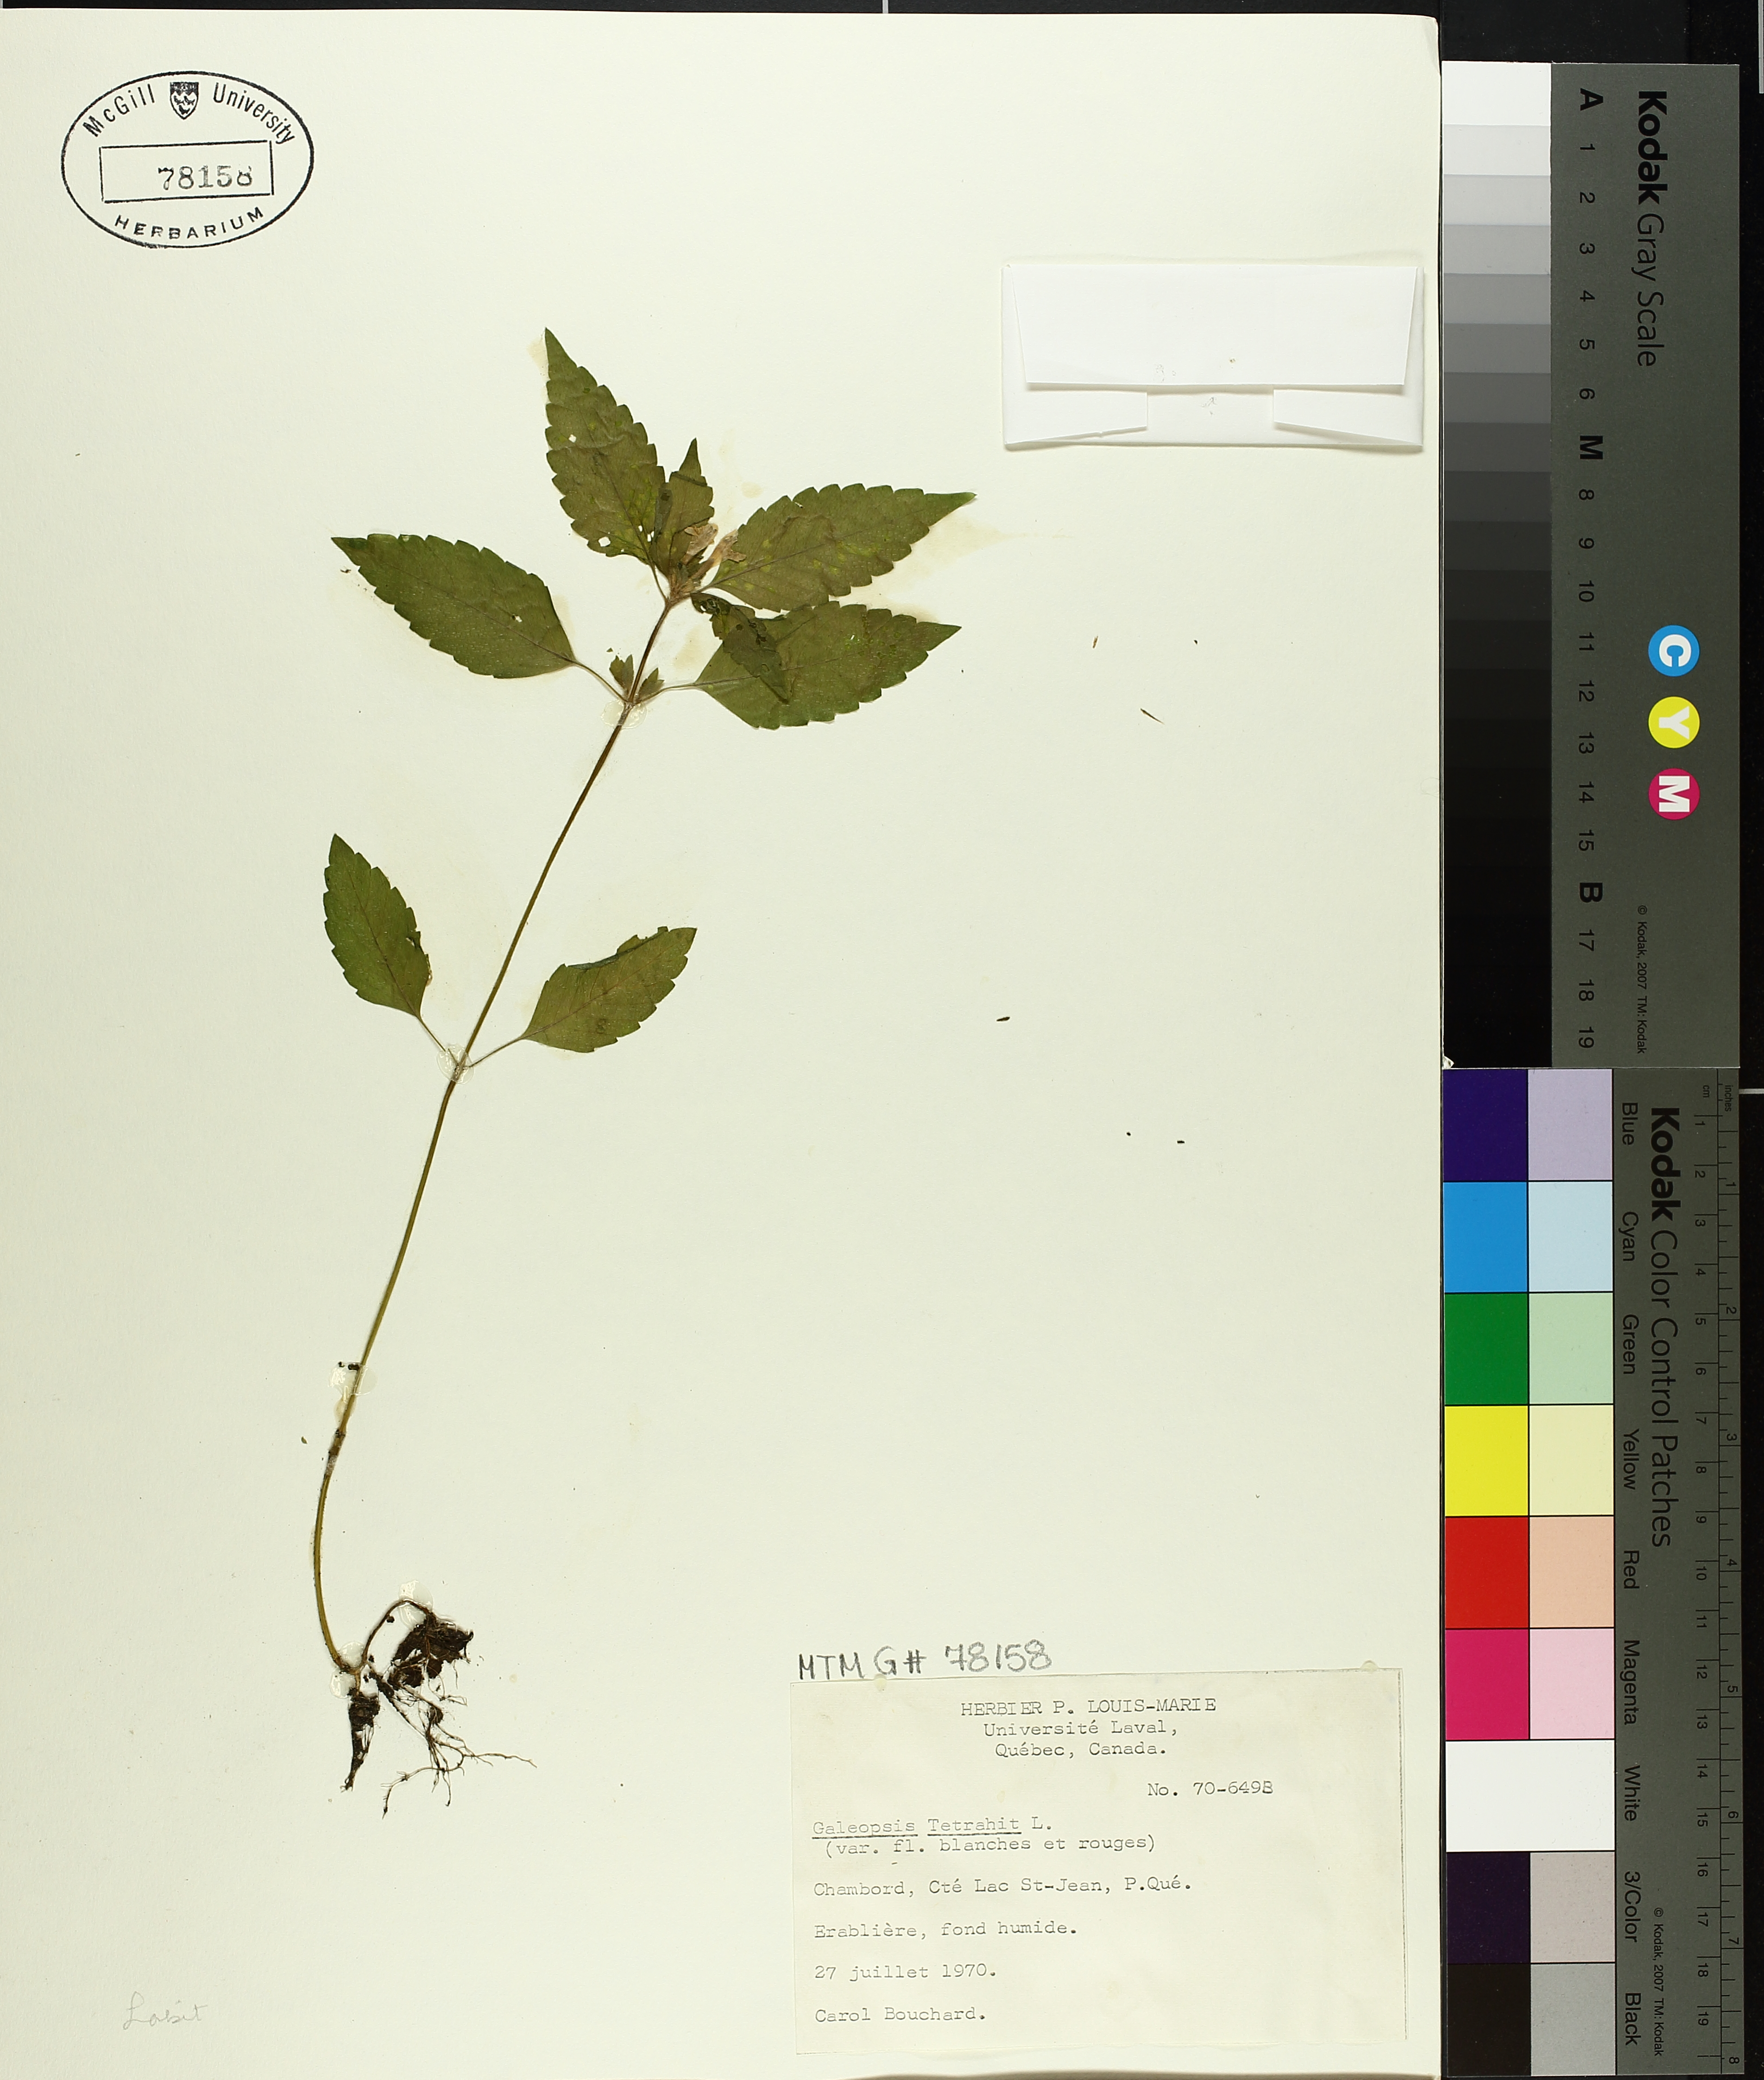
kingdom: Plantae
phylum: Tracheophyta
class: Magnoliopsida
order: Lamiales
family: Lamiaceae
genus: Galeopsis
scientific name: Galeopsis tetrahit
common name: Common hemp-nettle
